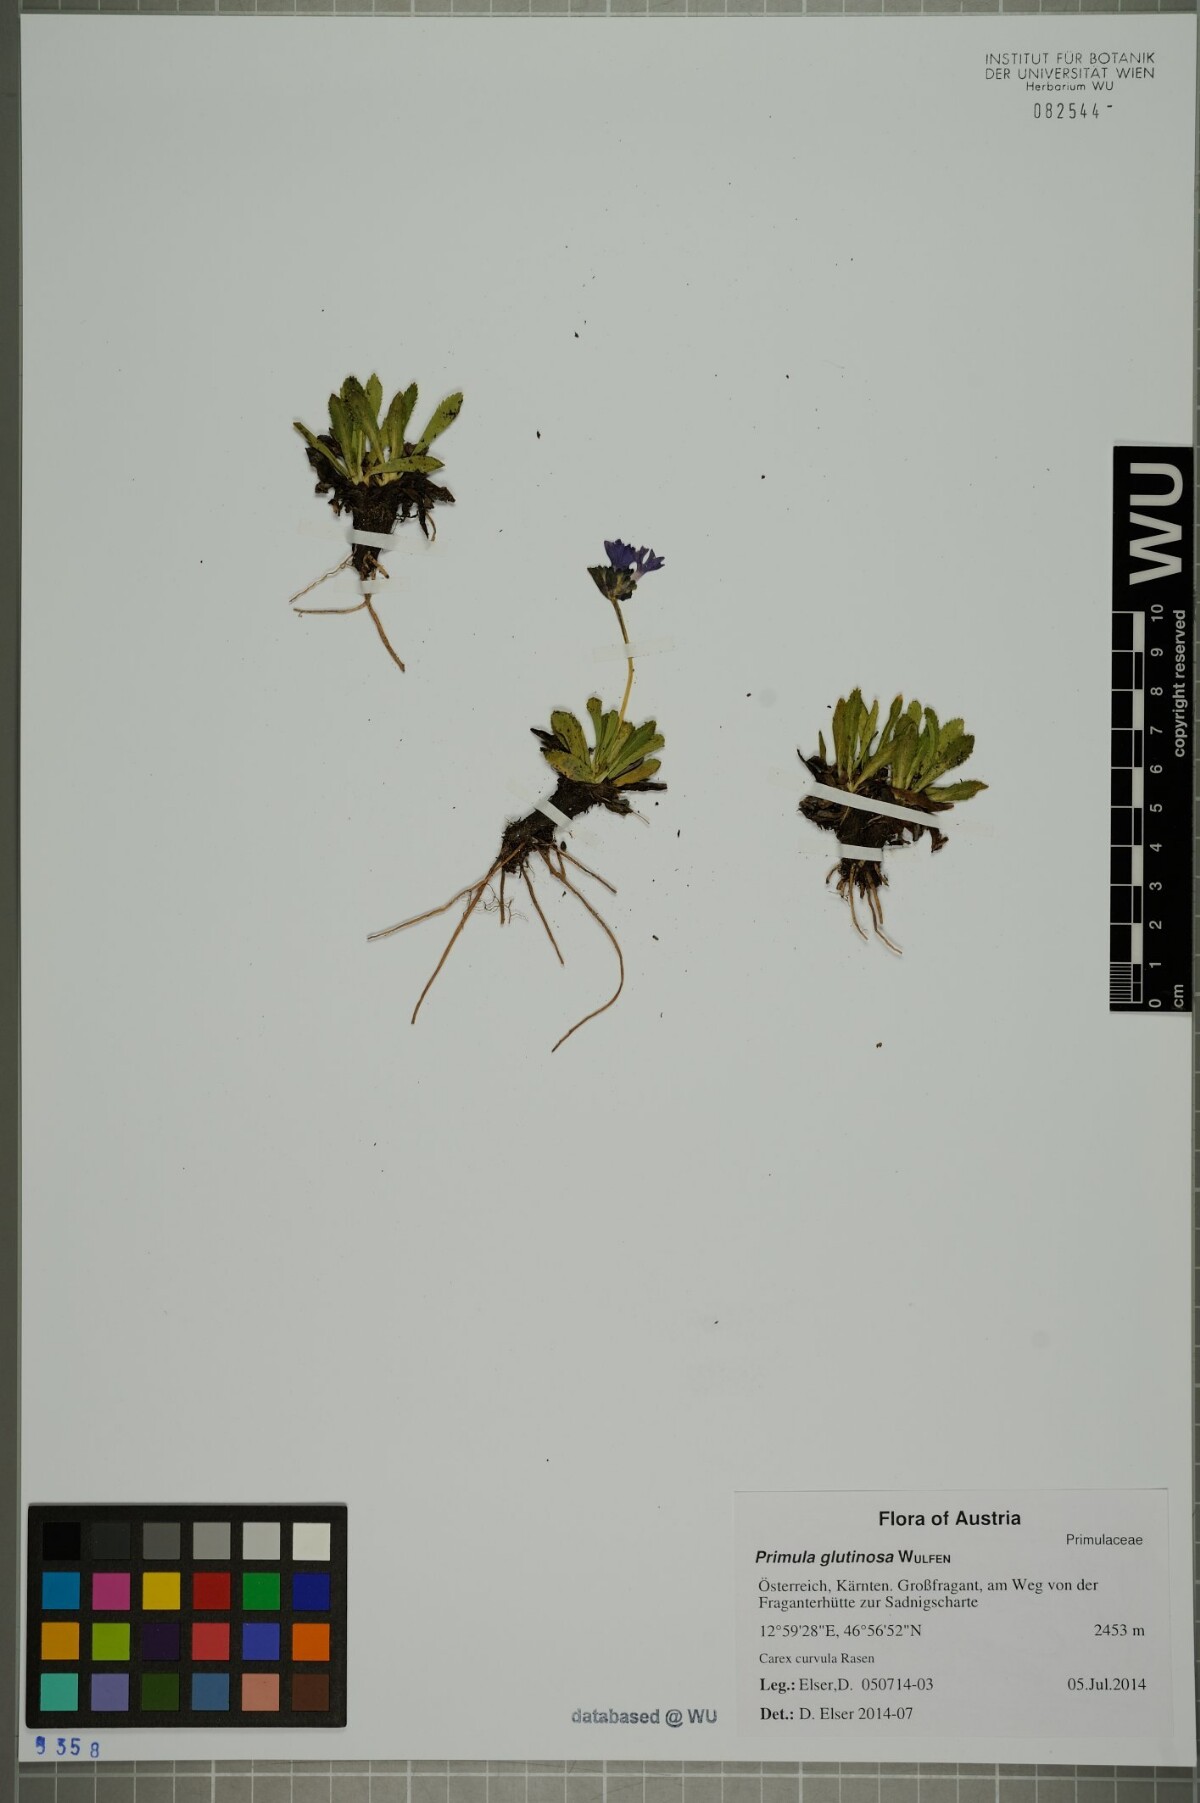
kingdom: Plantae
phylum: Tracheophyta
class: Magnoliopsida
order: Ericales
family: Primulaceae
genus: Primula
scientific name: Primula glutinosa
